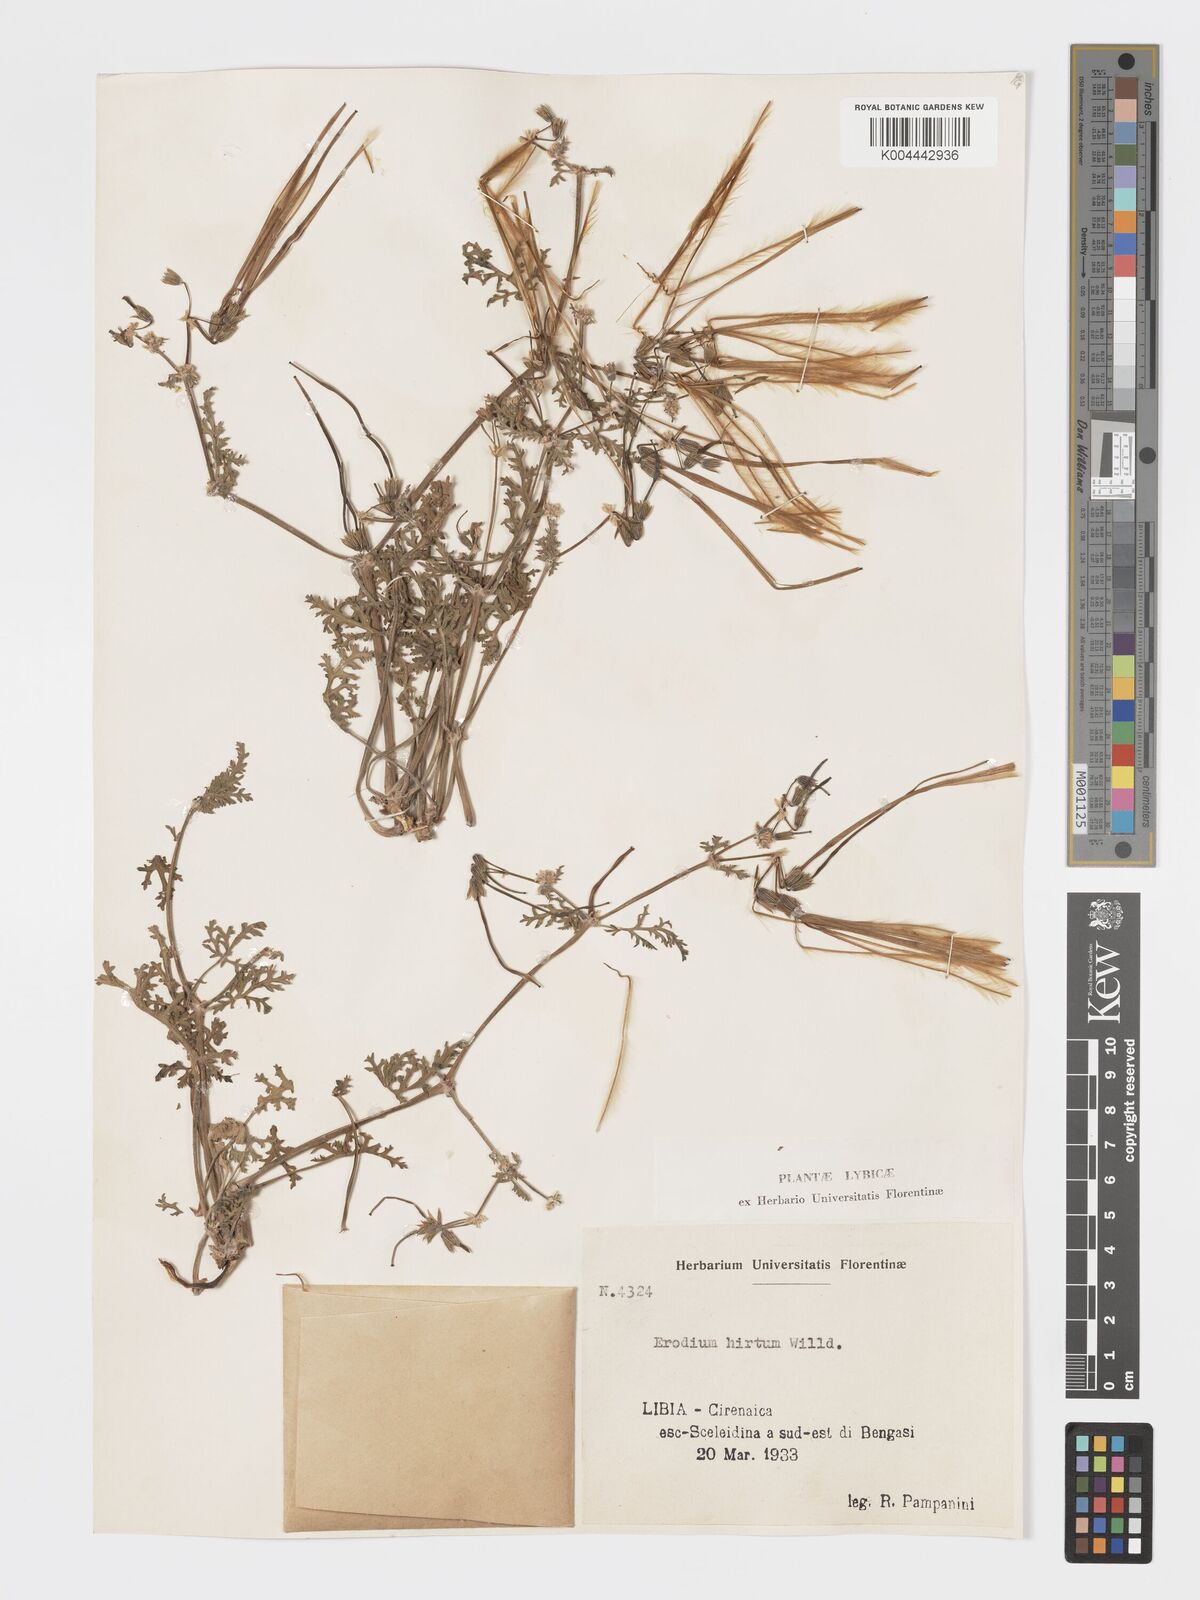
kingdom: Plantae
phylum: Tracheophyta
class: Magnoliopsida
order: Geraniales
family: Geraniaceae
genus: Erodium
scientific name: Erodium crassifolium
